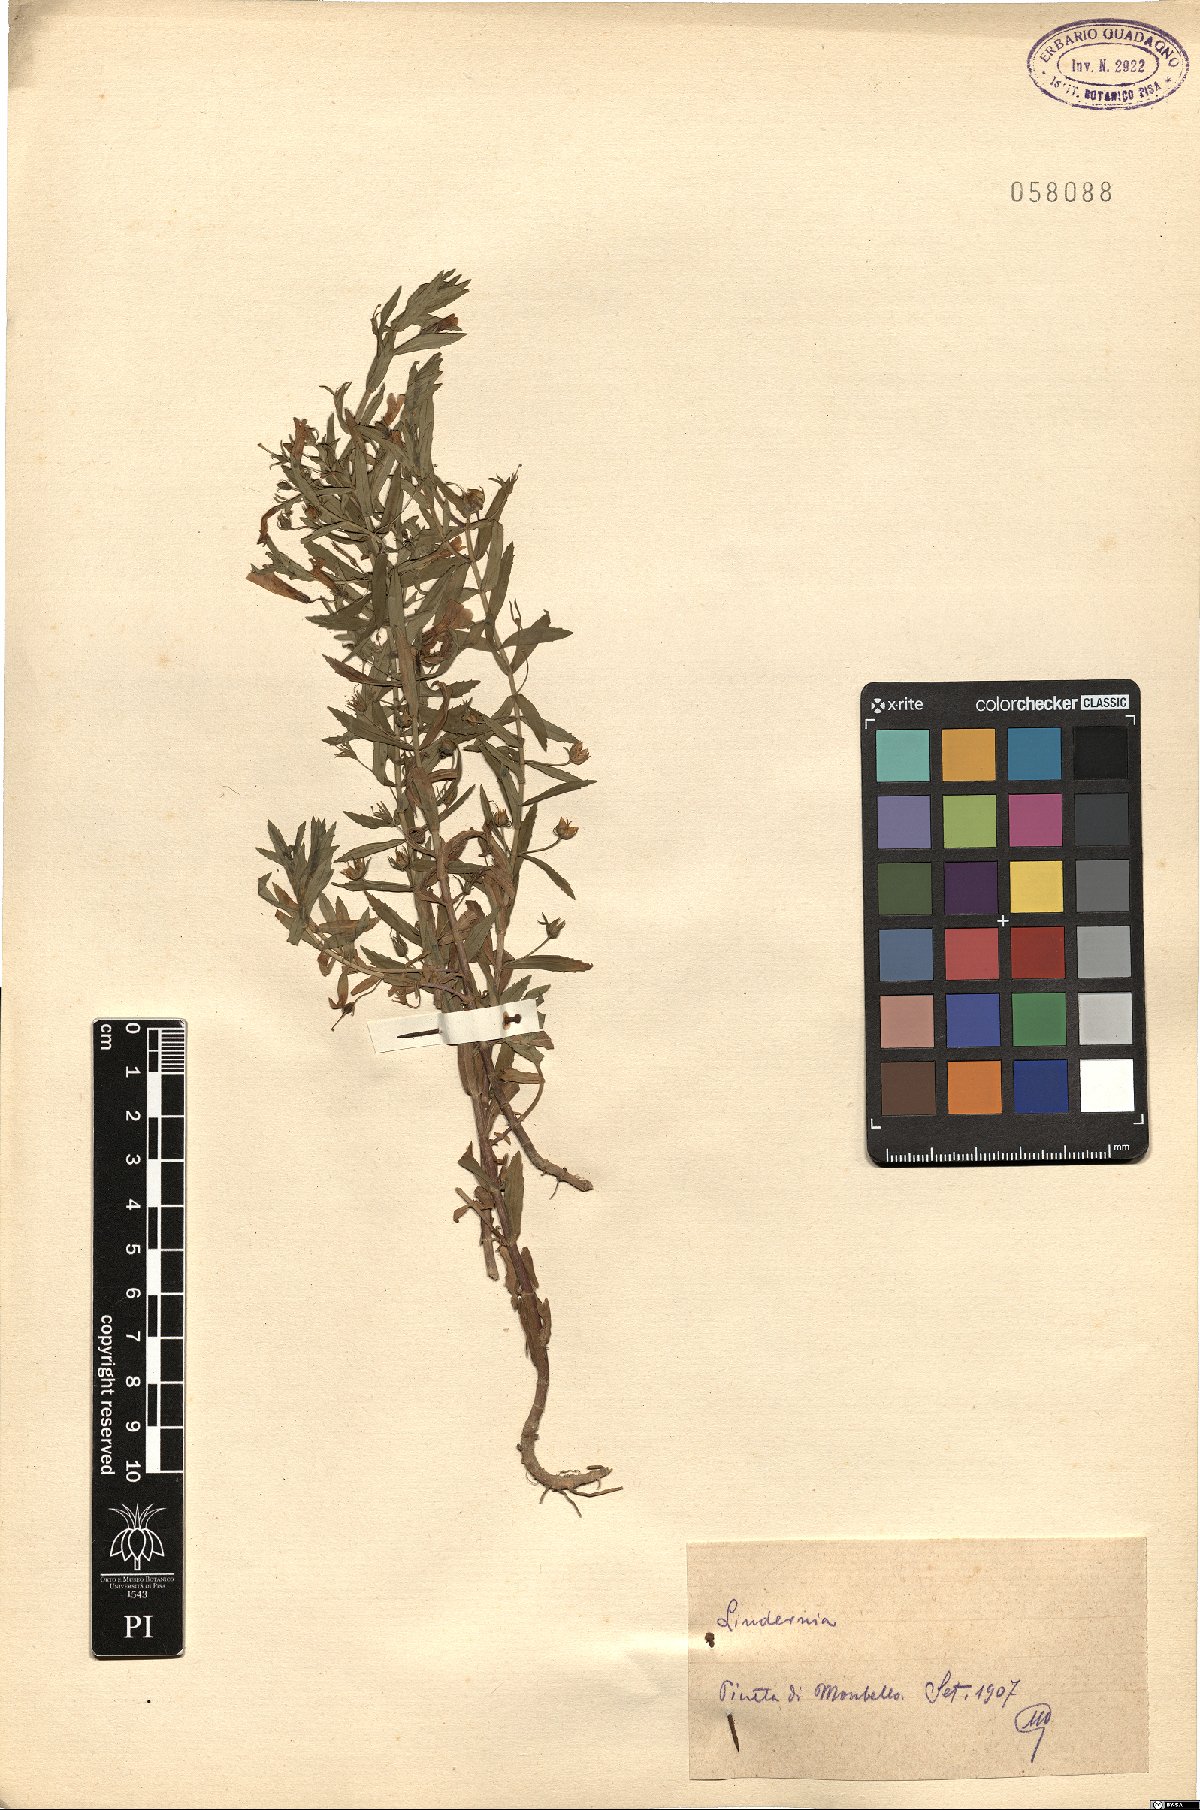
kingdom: Plantae
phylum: Tracheophyta
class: Magnoliopsida
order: Lamiales
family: Linderniaceae
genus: Lindernia
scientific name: Lindernia
